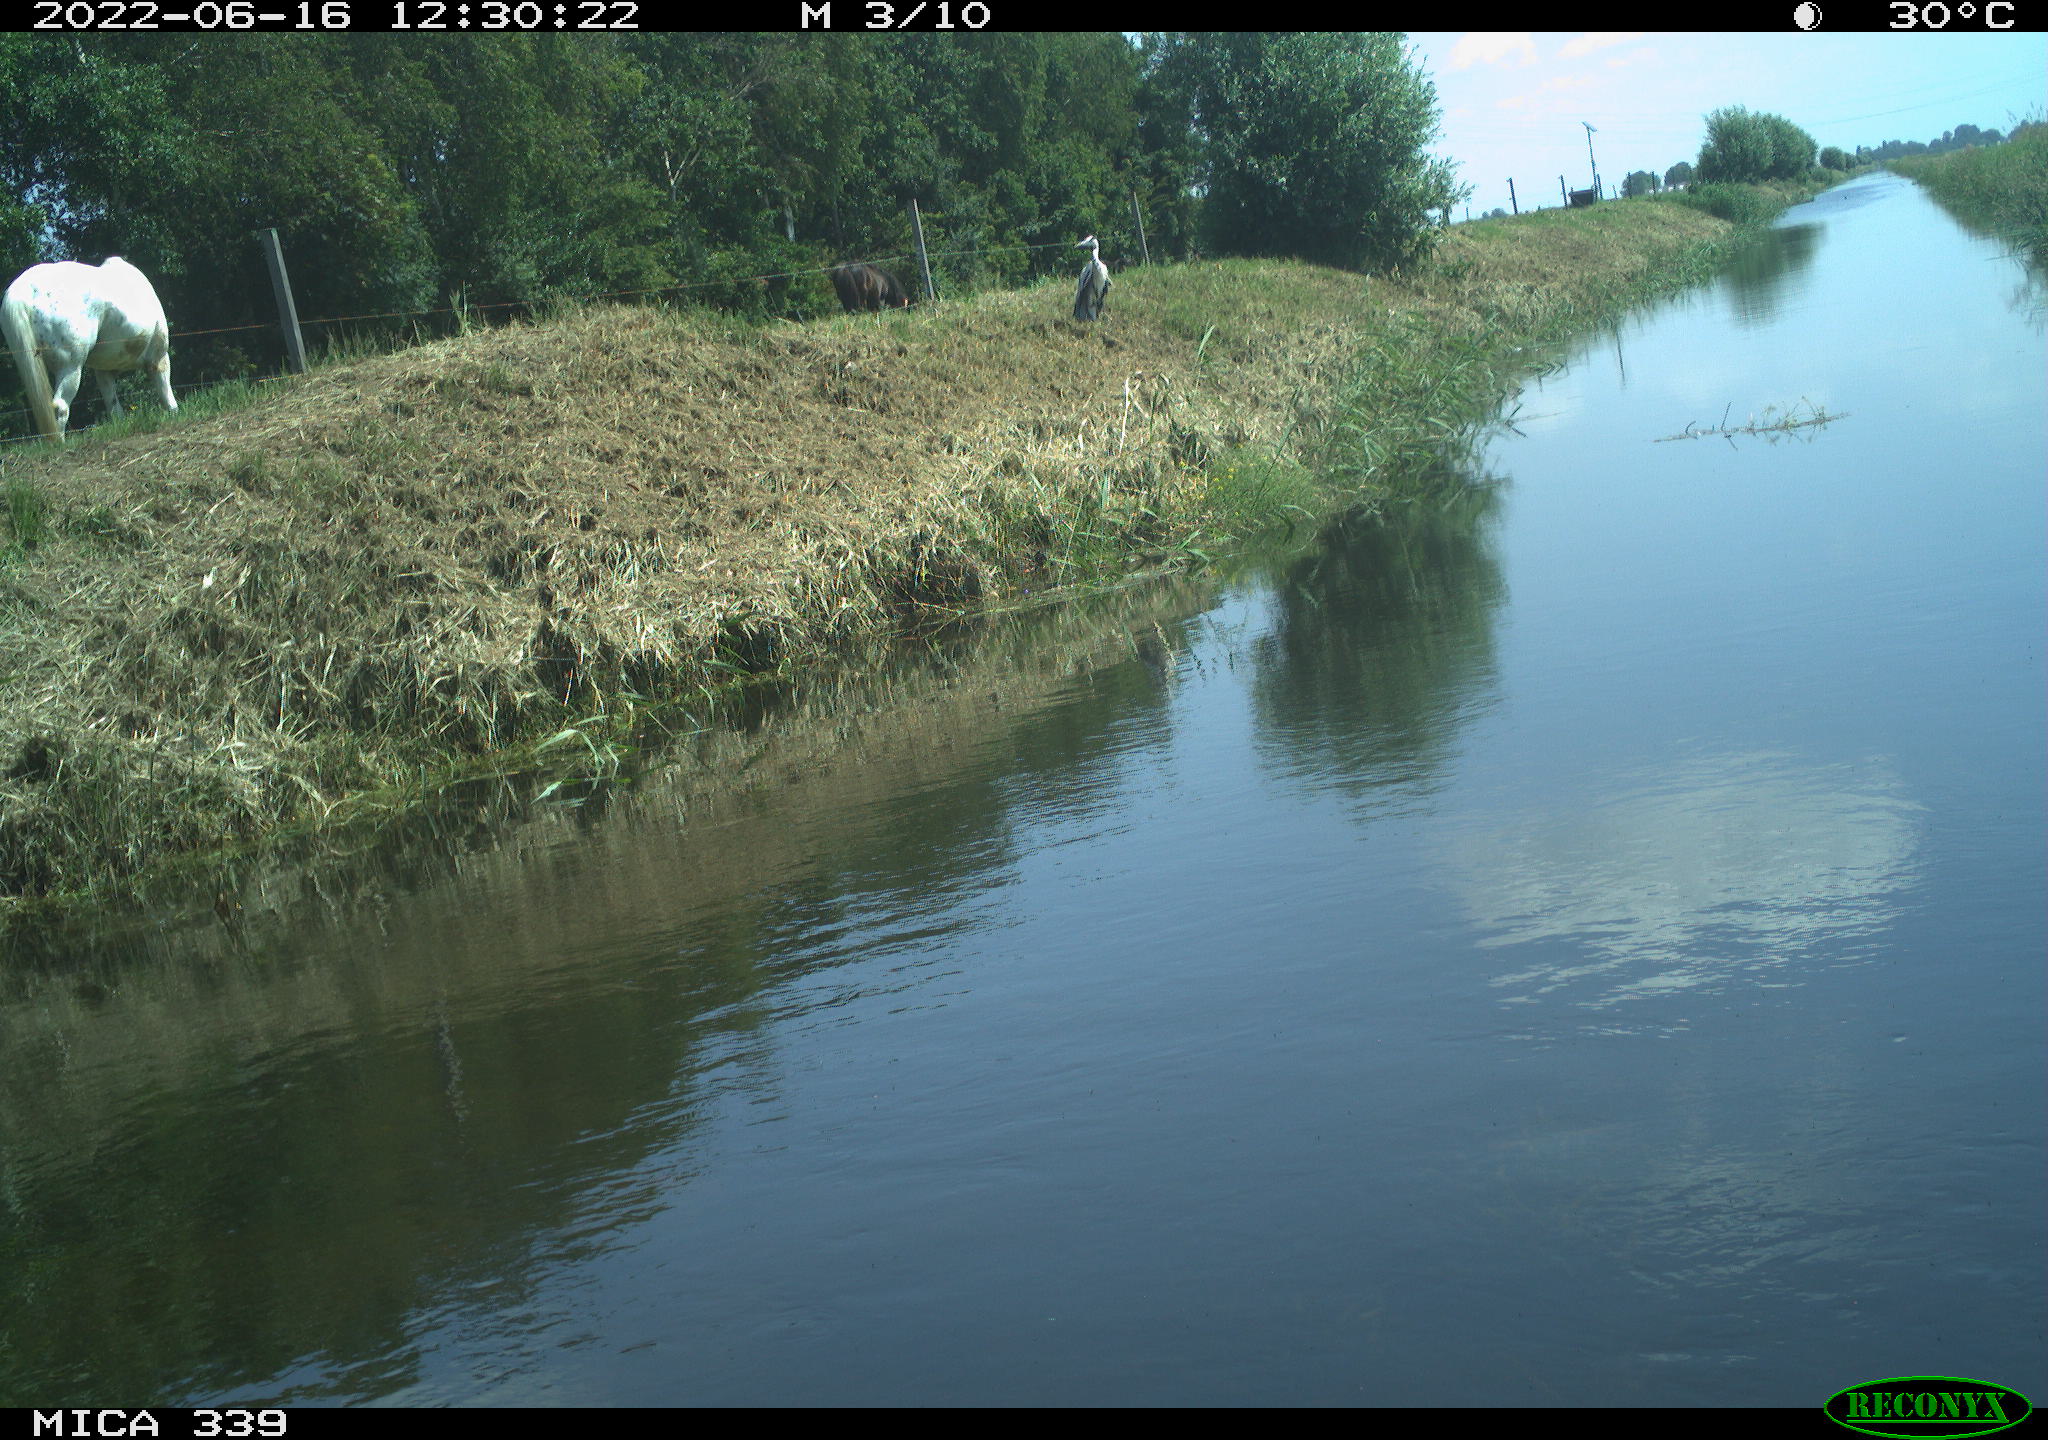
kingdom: Animalia
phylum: Chordata
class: Mammalia
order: Perissodactyla
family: Equidae
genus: Equus
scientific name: Equus caballus
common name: Horse
